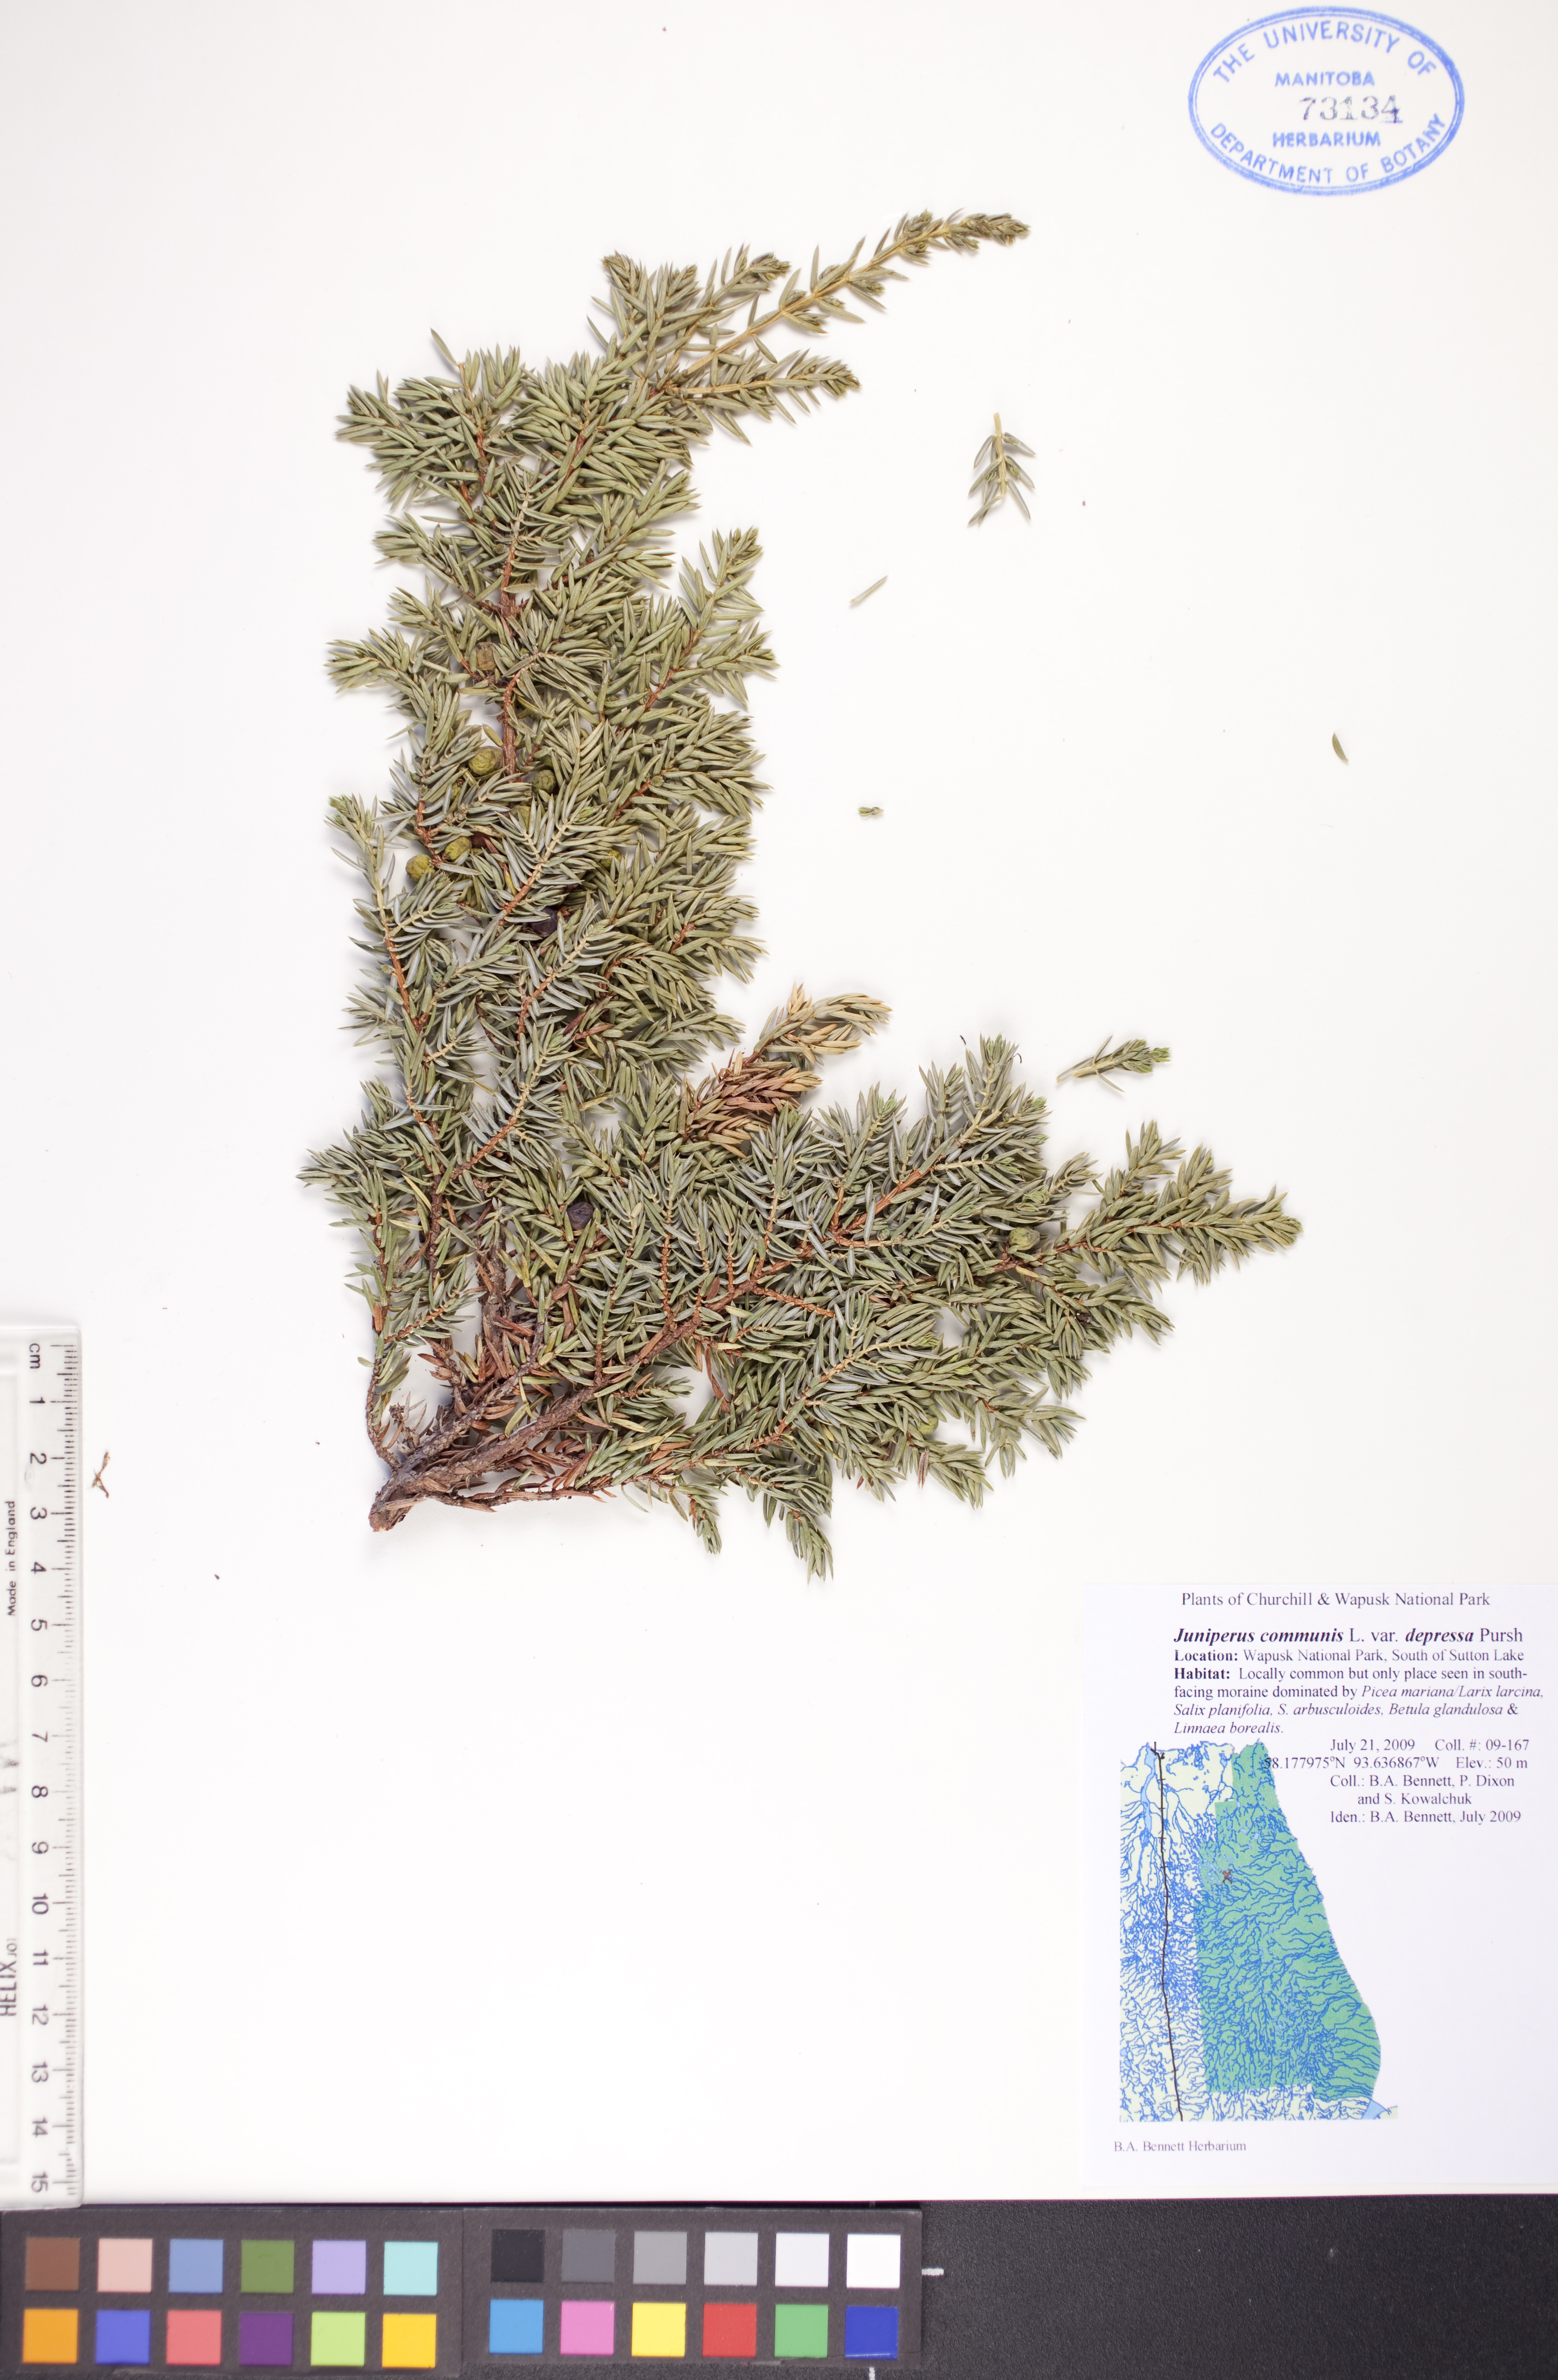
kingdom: Plantae
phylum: Tracheophyta
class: Pinopsida
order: Pinales
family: Cupressaceae
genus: Juniperus
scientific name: Juniperus communis
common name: Common juniper
